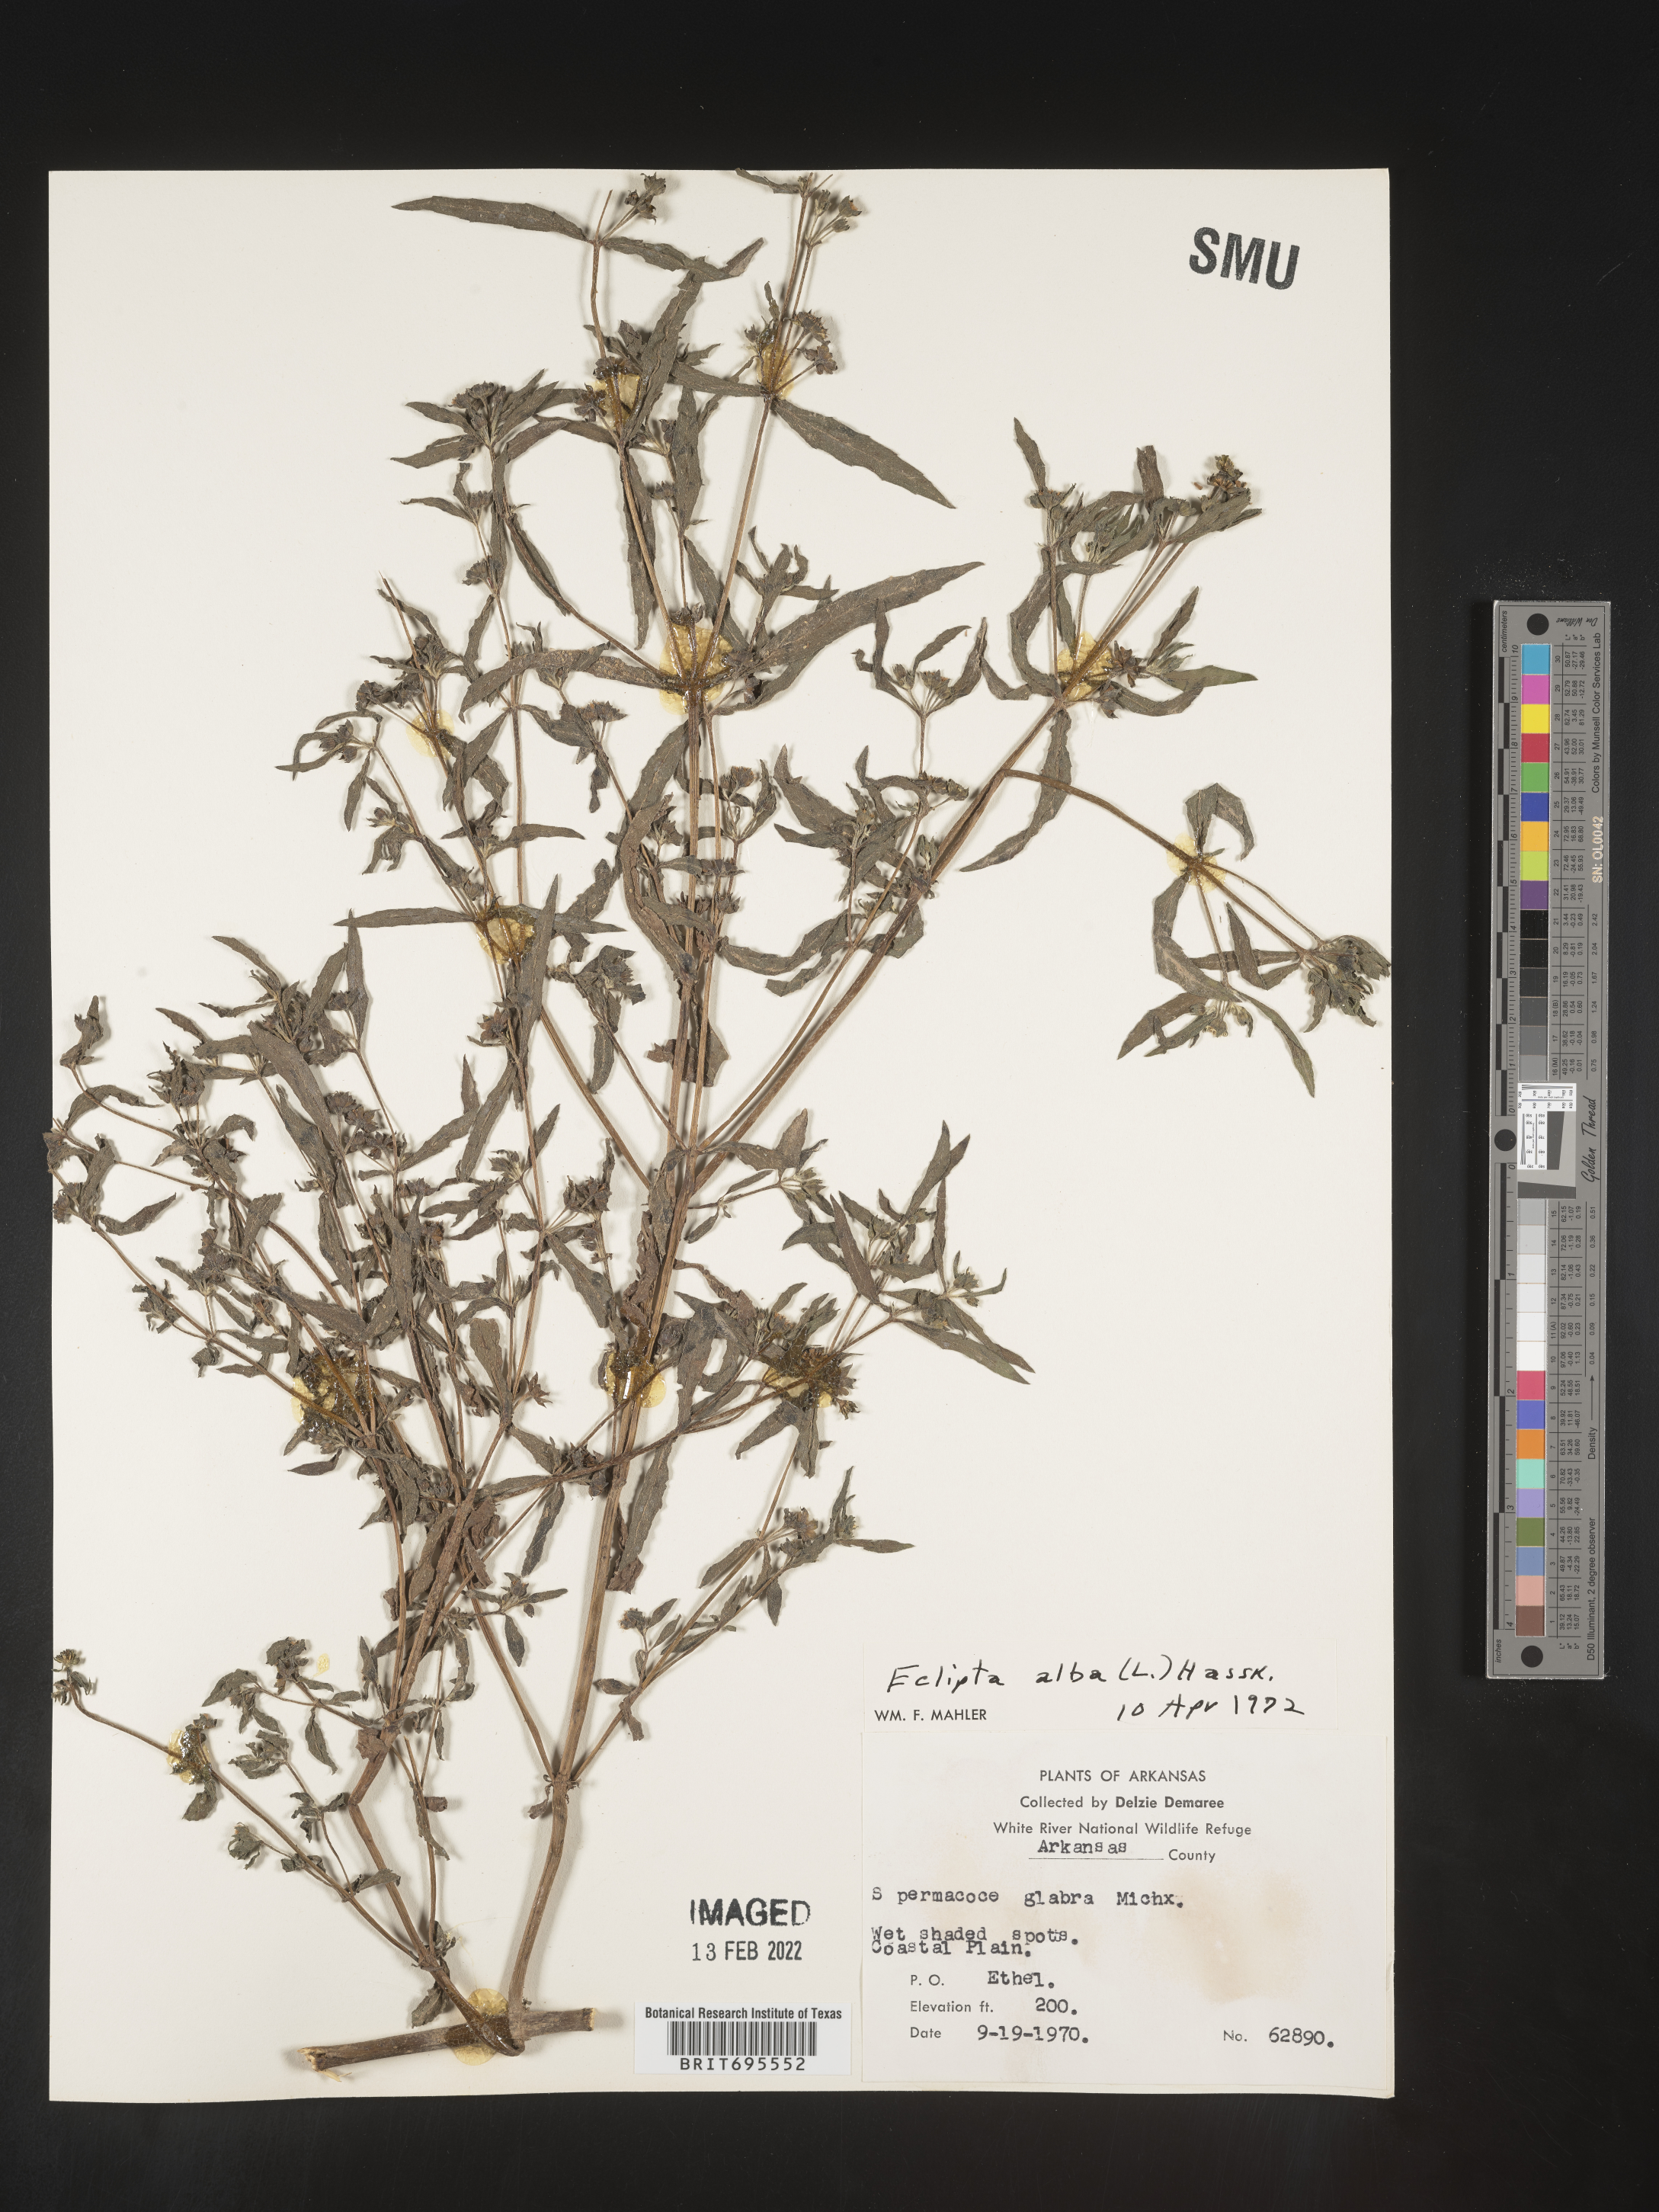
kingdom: Plantae
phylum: Tracheophyta
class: Magnoliopsida
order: Asterales
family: Asteraceae
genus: Eclipta
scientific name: Eclipta alba
